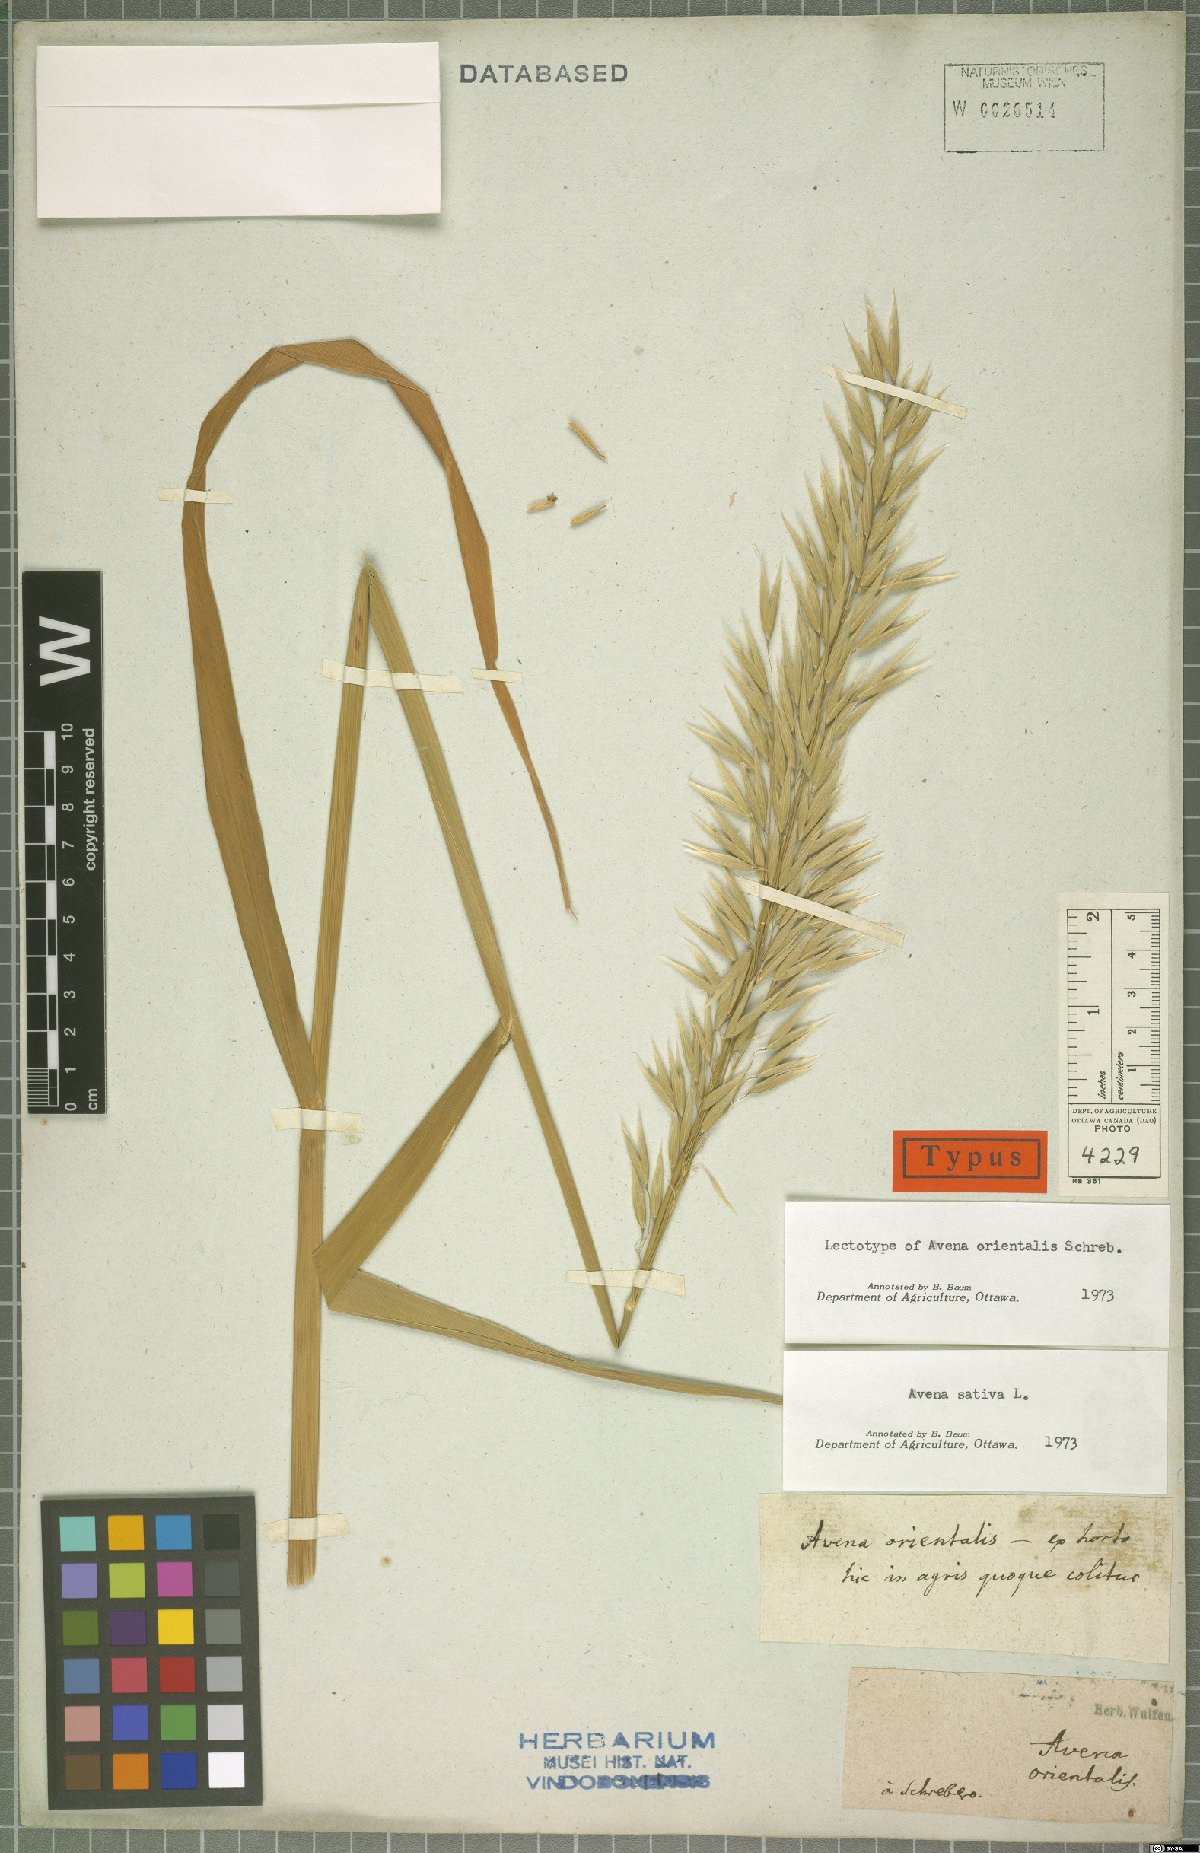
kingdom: Plantae
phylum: Tracheophyta
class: Liliopsida
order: Poales
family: Poaceae
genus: Avena
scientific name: Avena sativa
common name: Oat
